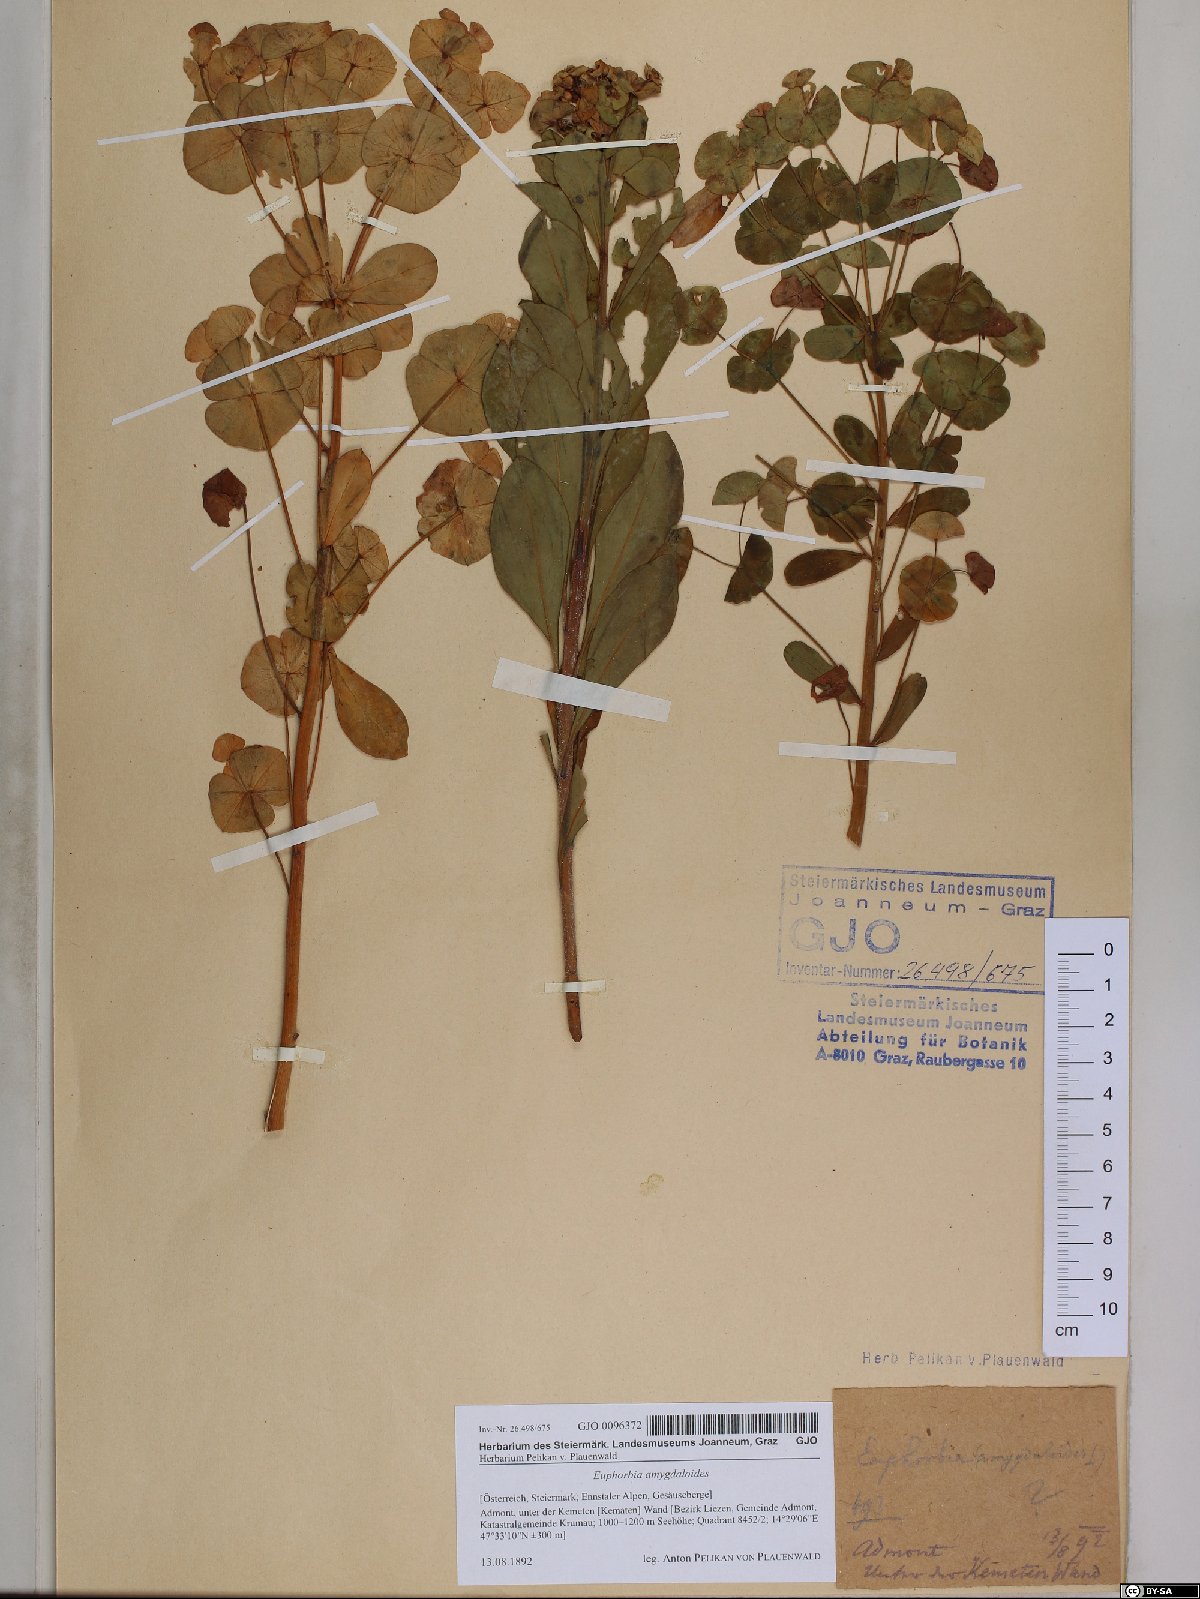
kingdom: Plantae
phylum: Tracheophyta
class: Magnoliopsida
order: Malpighiales
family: Euphorbiaceae
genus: Euphorbia
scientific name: Euphorbia amygdaloides
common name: Wood spurge
